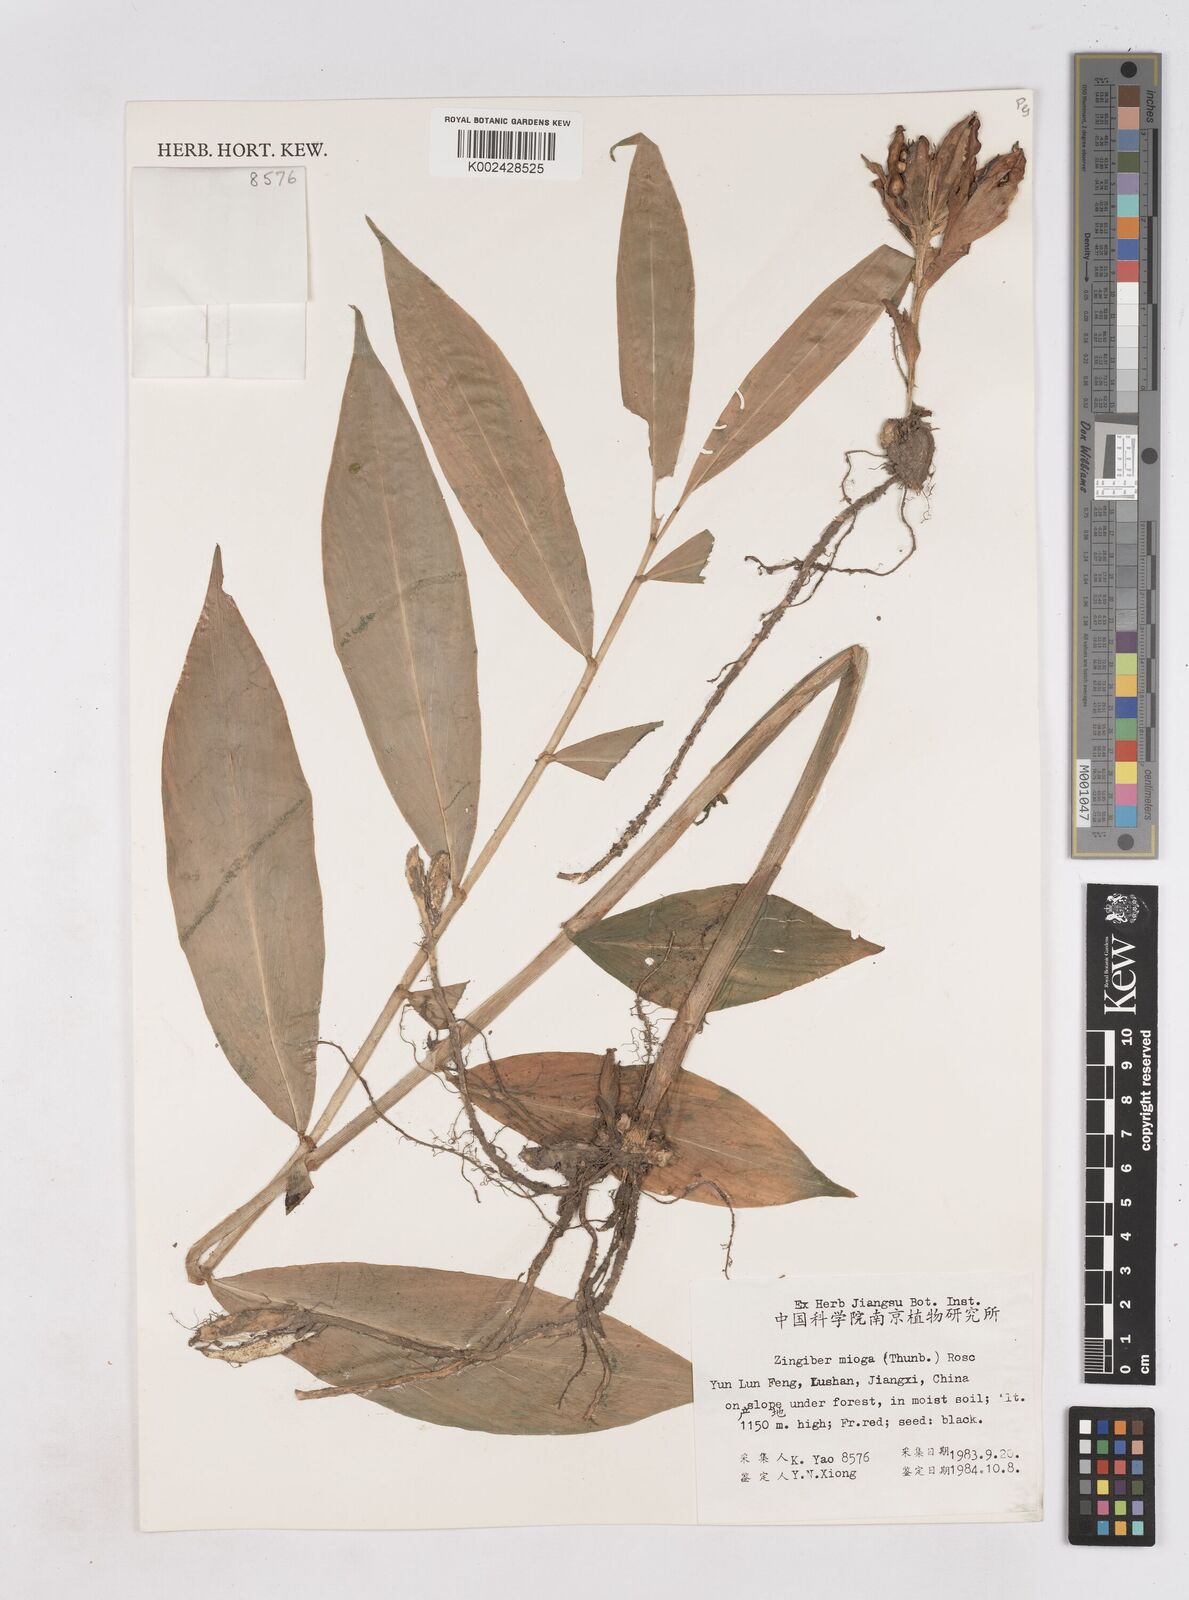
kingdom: Plantae
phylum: Tracheophyta
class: Liliopsida
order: Zingiberales
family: Zingiberaceae
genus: Zingiber
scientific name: Zingiber mioga
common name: Japanese ginger
